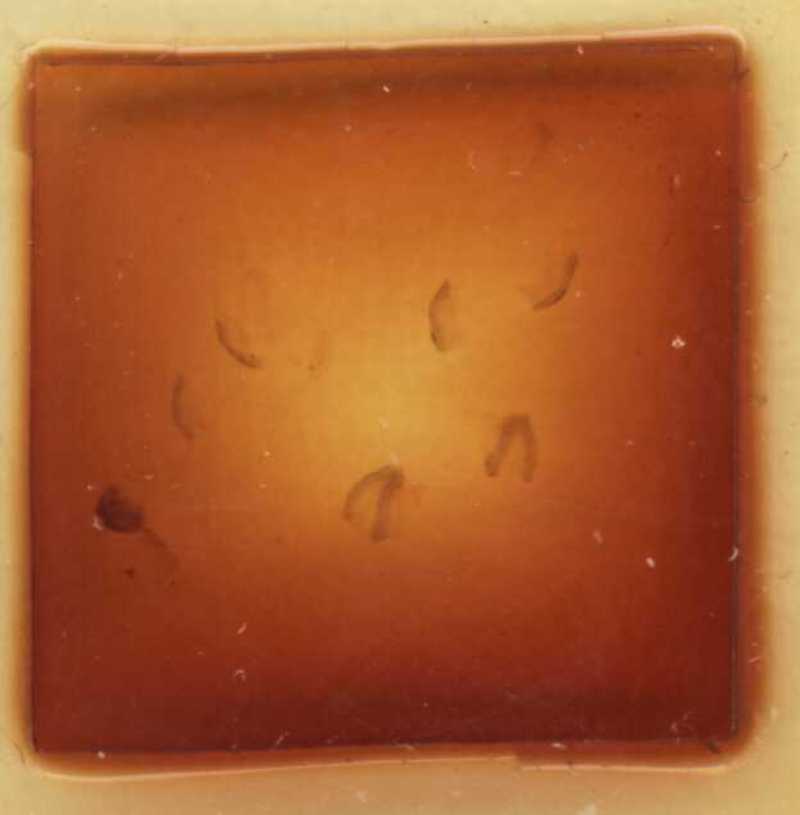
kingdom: Animalia
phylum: Arthropoda
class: Diplopoda
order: Glomerida
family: Glomeridae
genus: Trachysphaera
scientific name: Trachysphaera apenninorum
